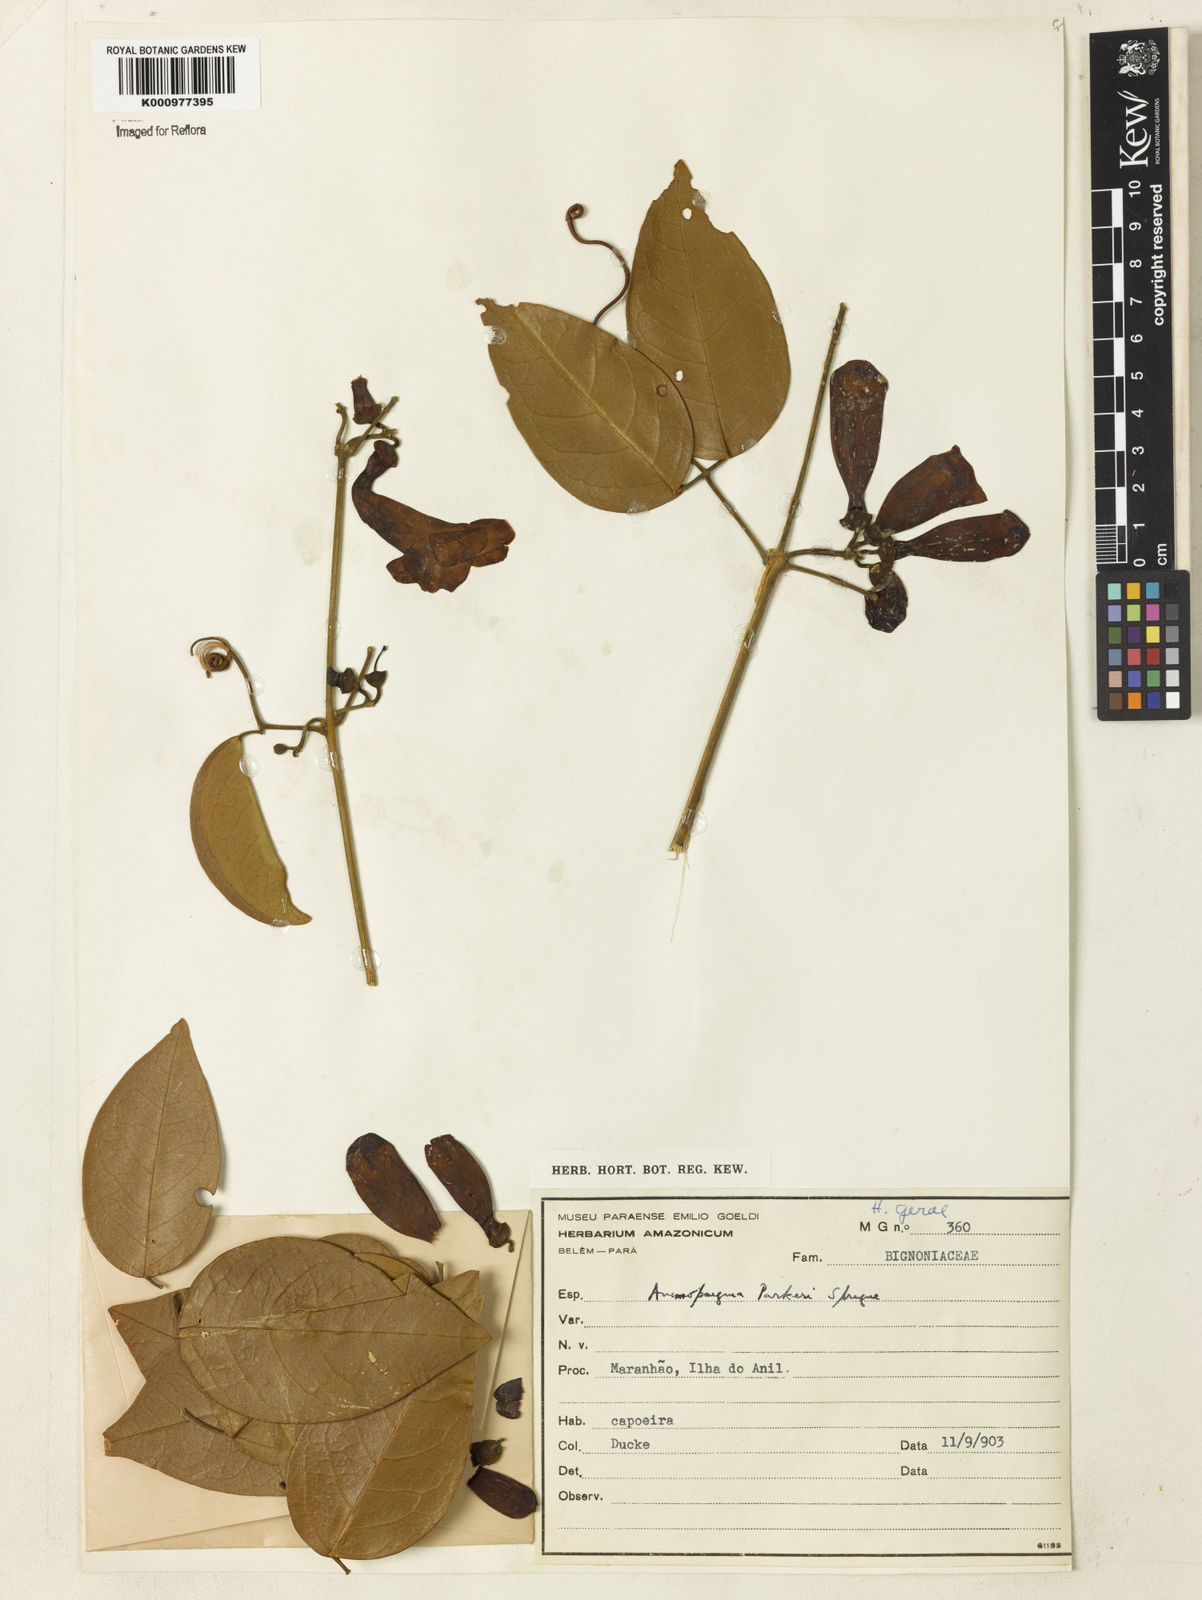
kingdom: Plantae
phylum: Tracheophyta
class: Magnoliopsida
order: Lamiales
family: Bignoniaceae
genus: Anemopaegma
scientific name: Anemopaegma parkeri
